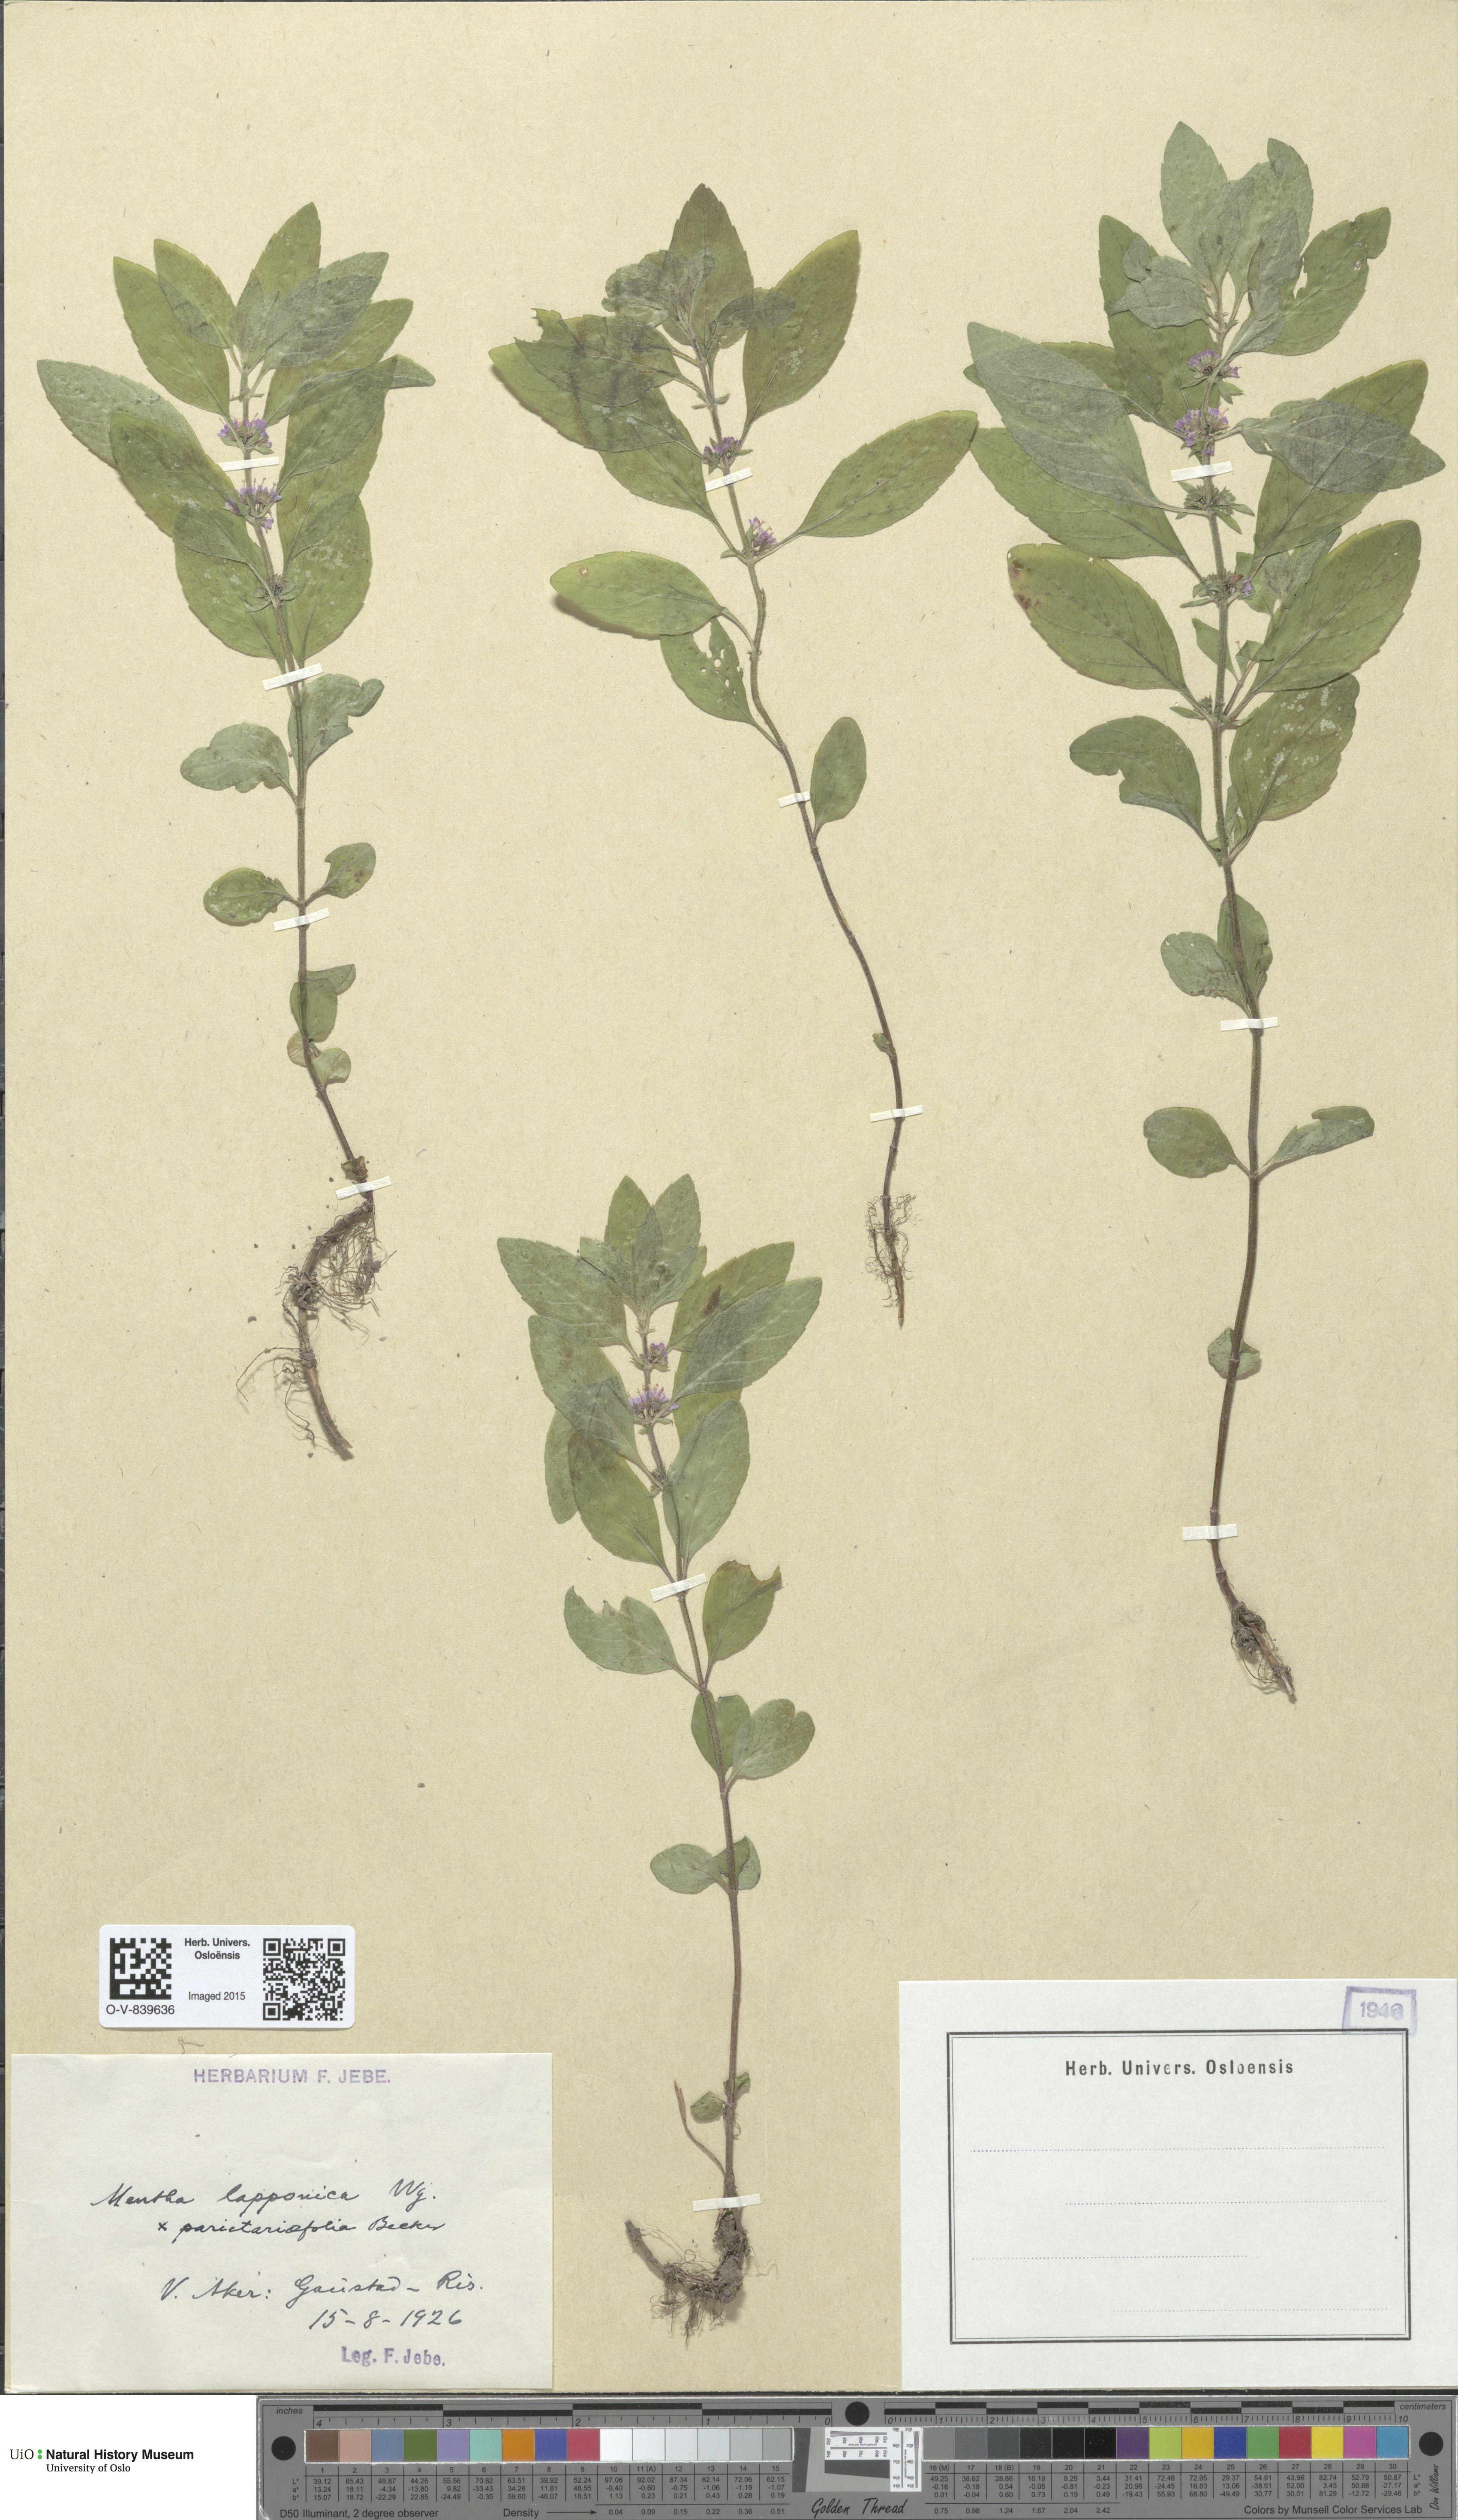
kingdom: Plantae
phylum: Tracheophyta
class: Magnoliopsida
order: Lamiales
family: Lamiaceae
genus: Mentha
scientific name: Mentha arvensis
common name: Corn mint
